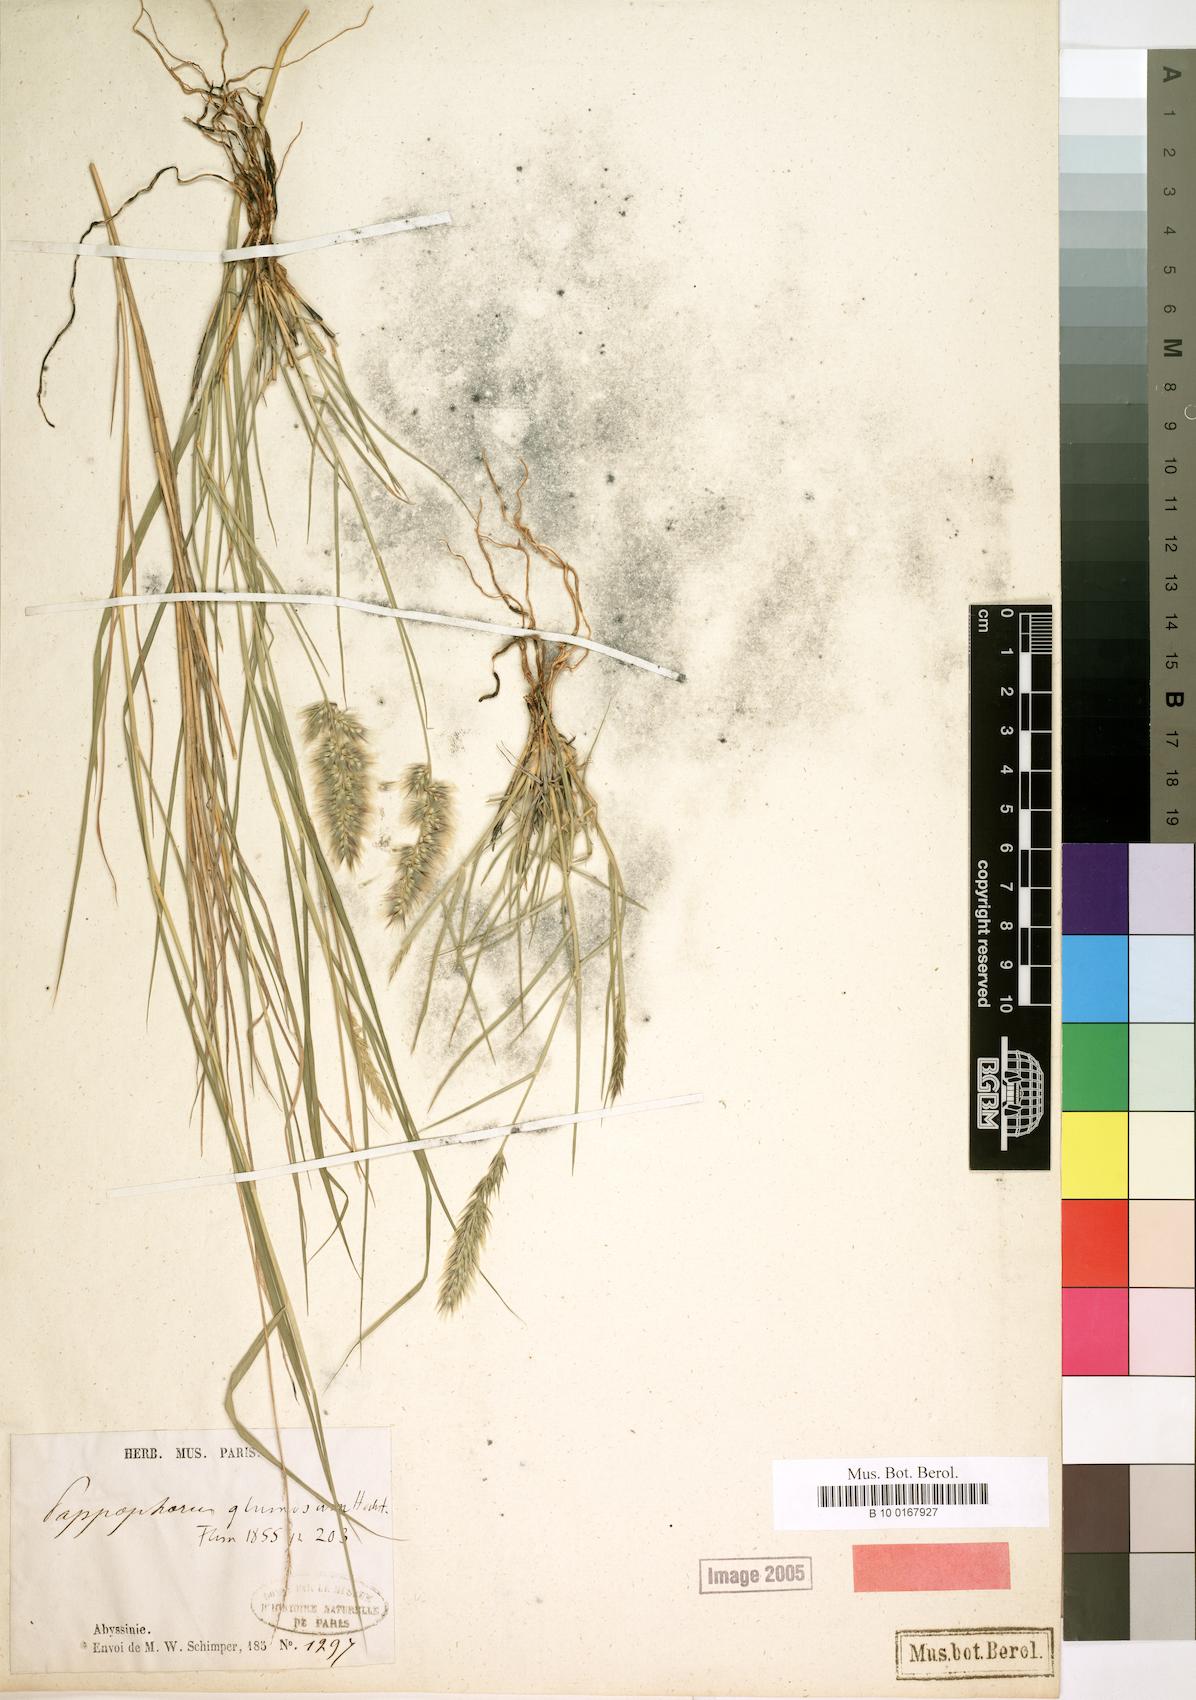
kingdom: Plantae
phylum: Tracheophyta
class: Liliopsida
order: Poales
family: Poaceae
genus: Enneapogon
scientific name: Enneapogon persicus
